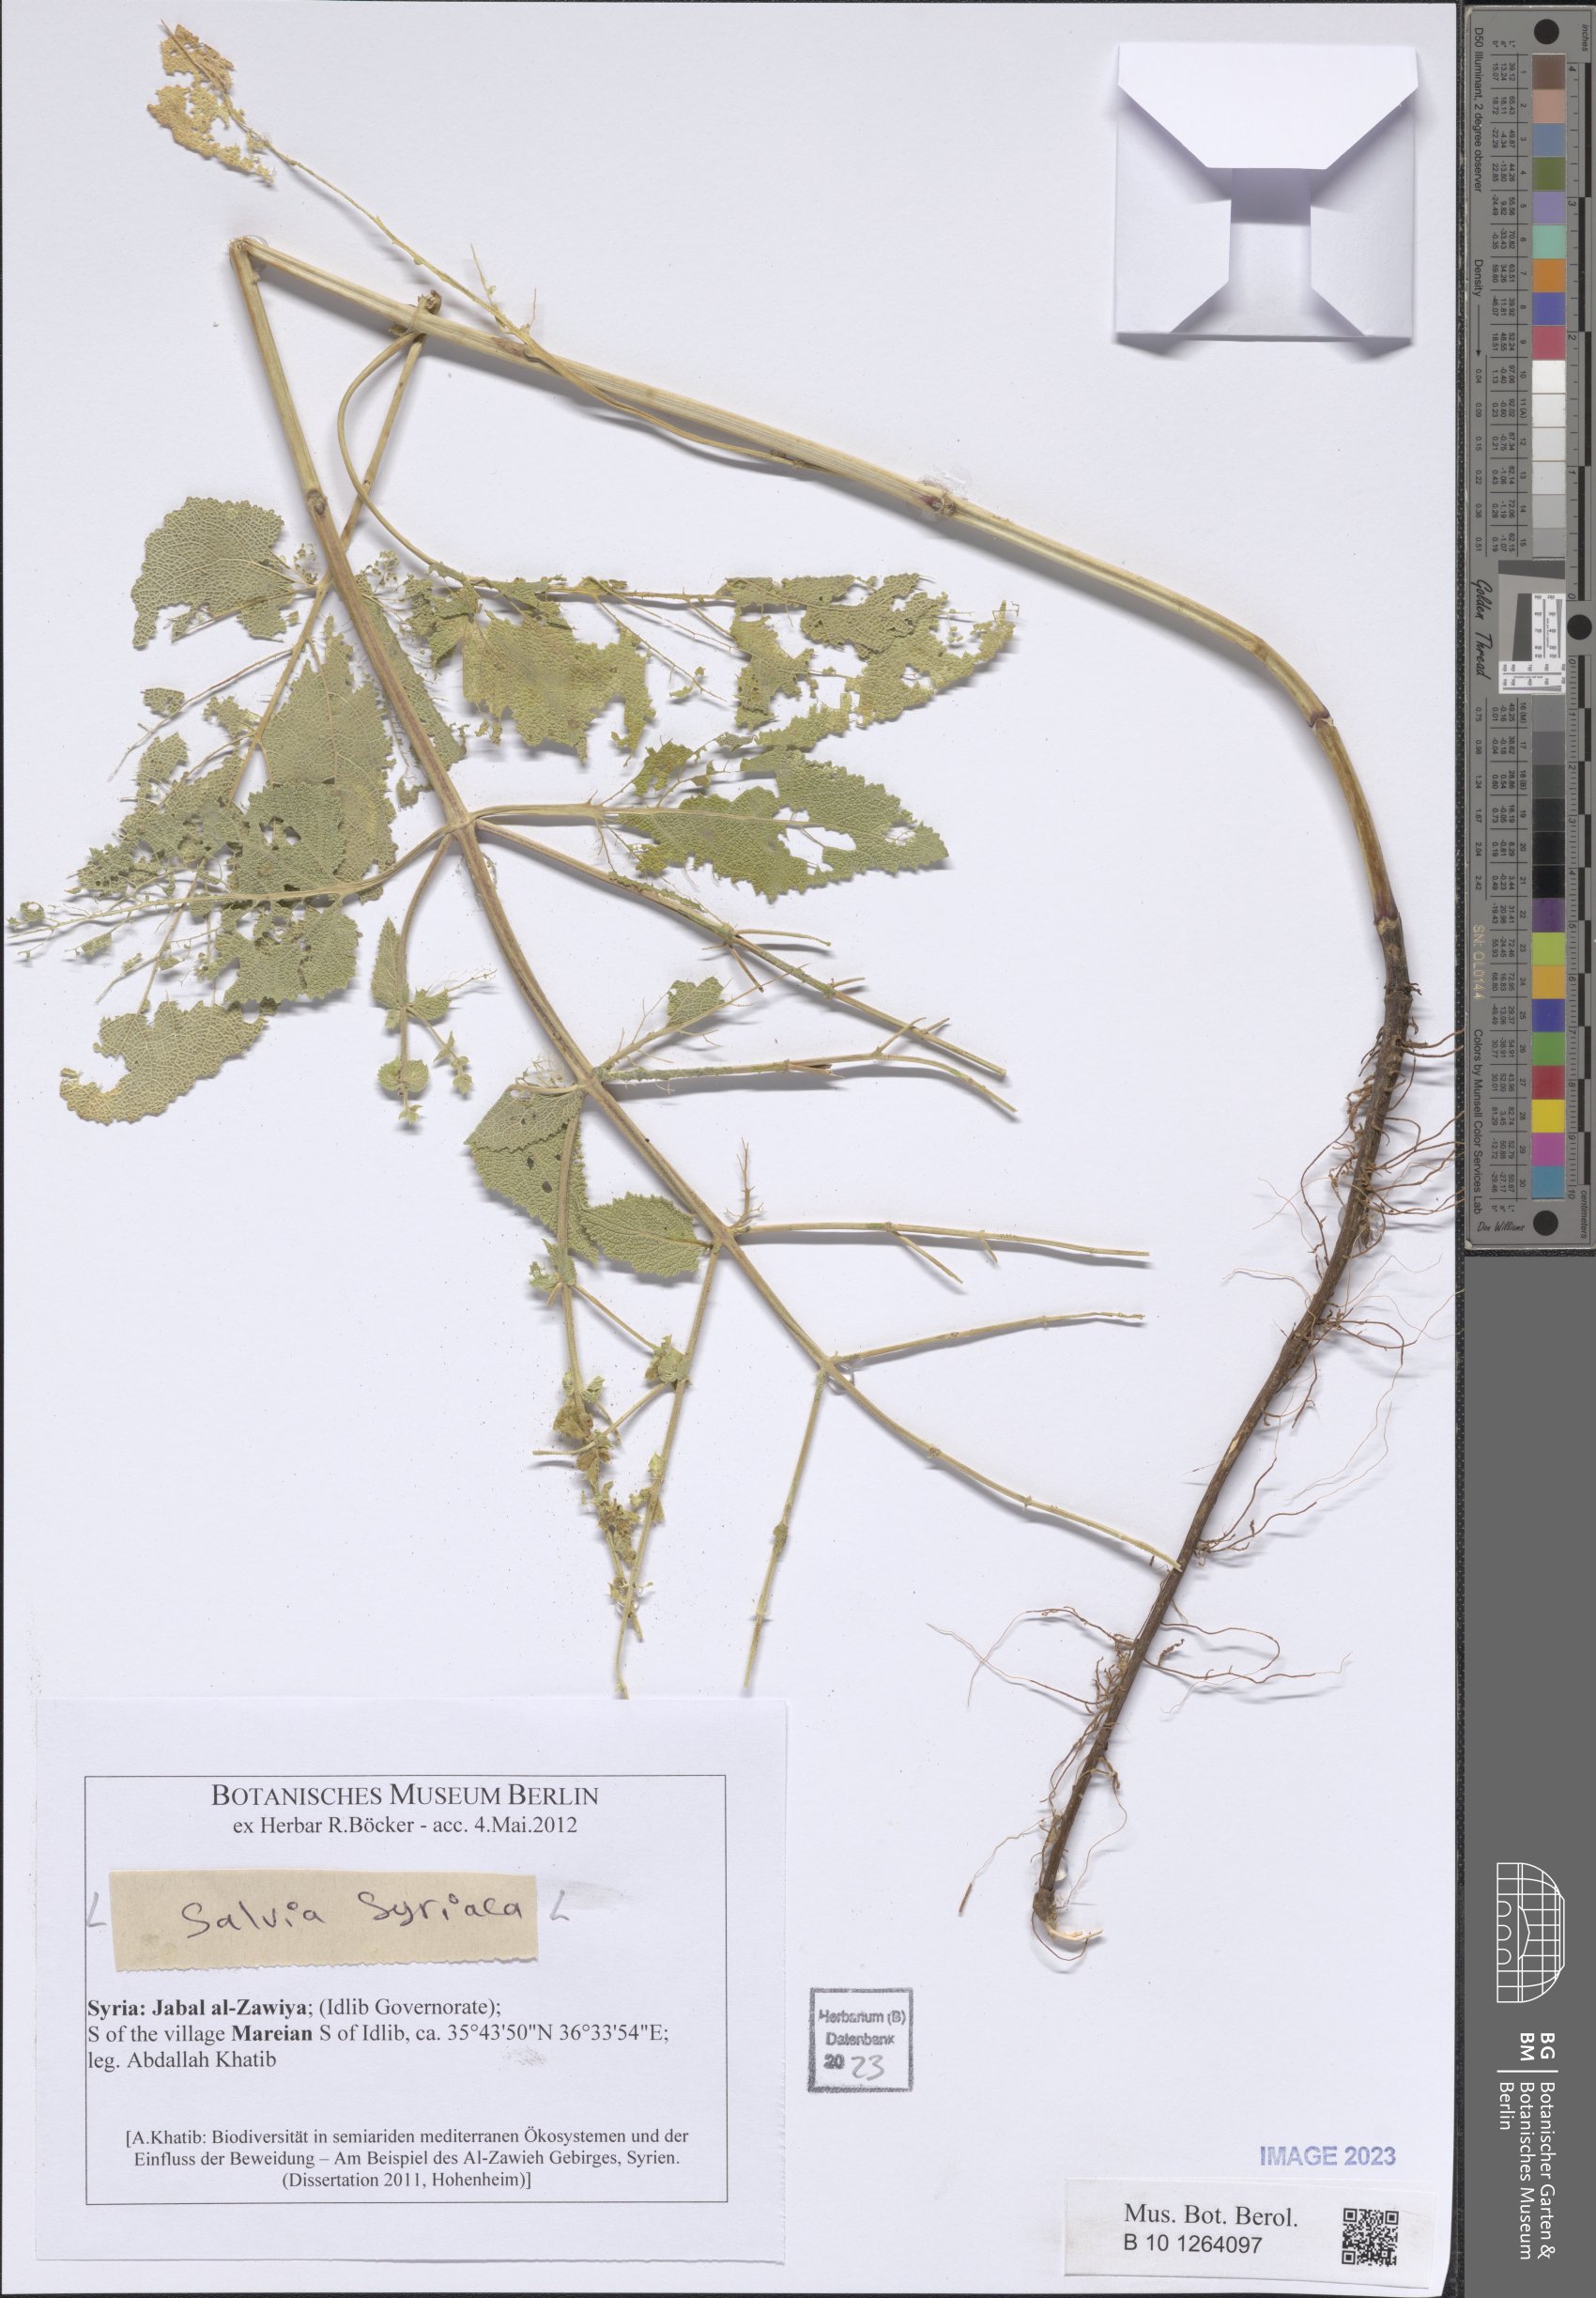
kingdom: Plantae
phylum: Tracheophyta
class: Magnoliopsida
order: Lamiales
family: Lamiaceae
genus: Salvia
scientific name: Salvia syriaca
